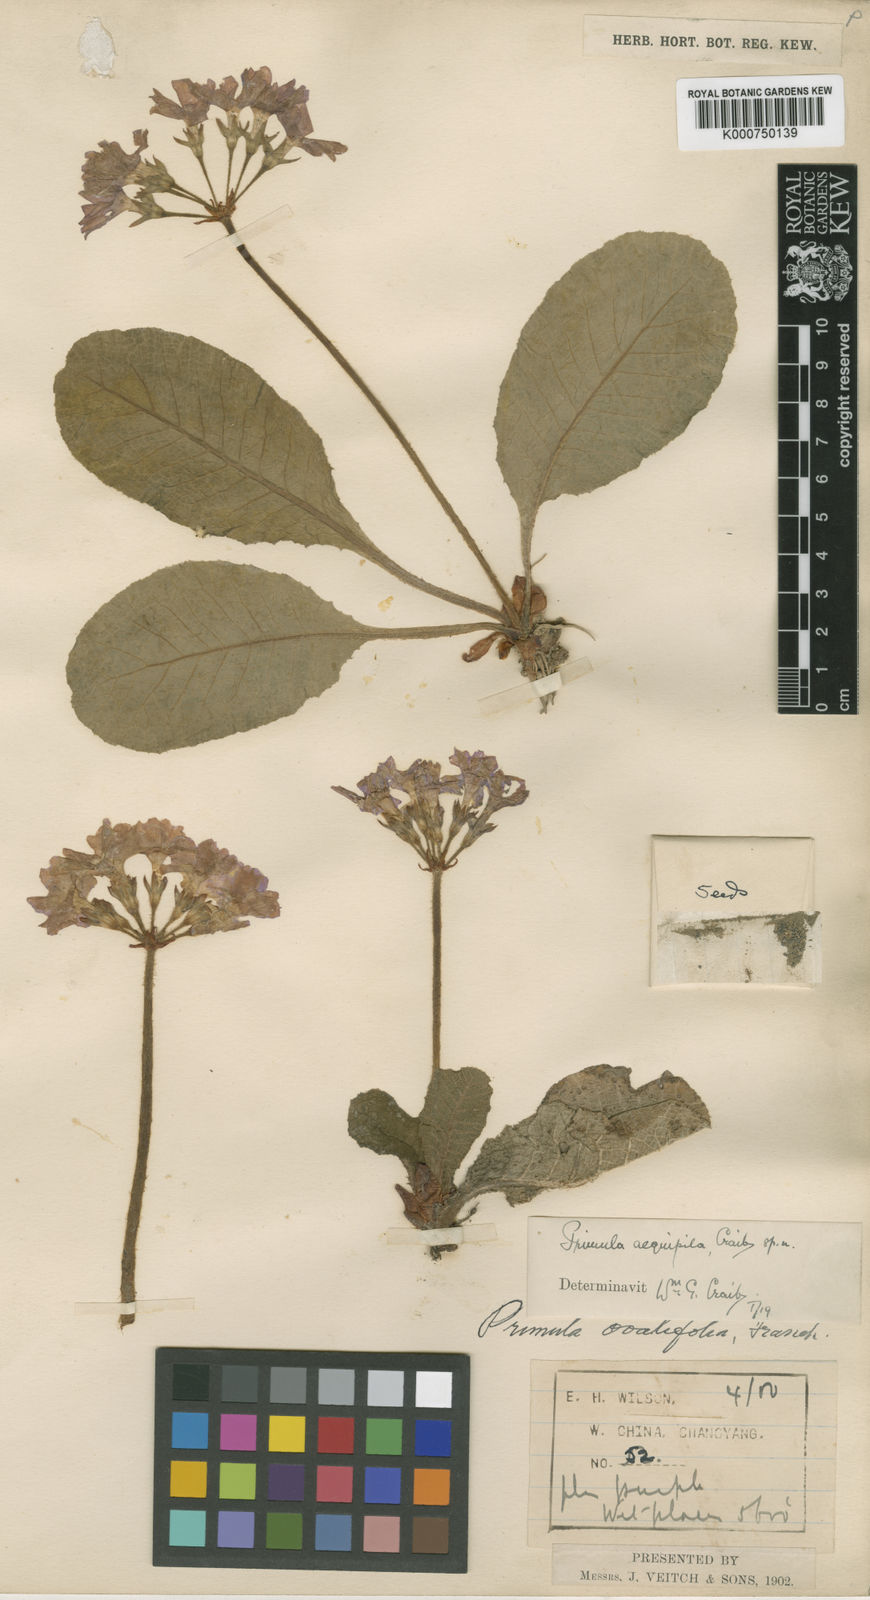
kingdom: Plantae
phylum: Tracheophyta
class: Magnoliopsida
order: Ericales
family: Primulaceae
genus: Primula
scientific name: Primula ovalifolia
